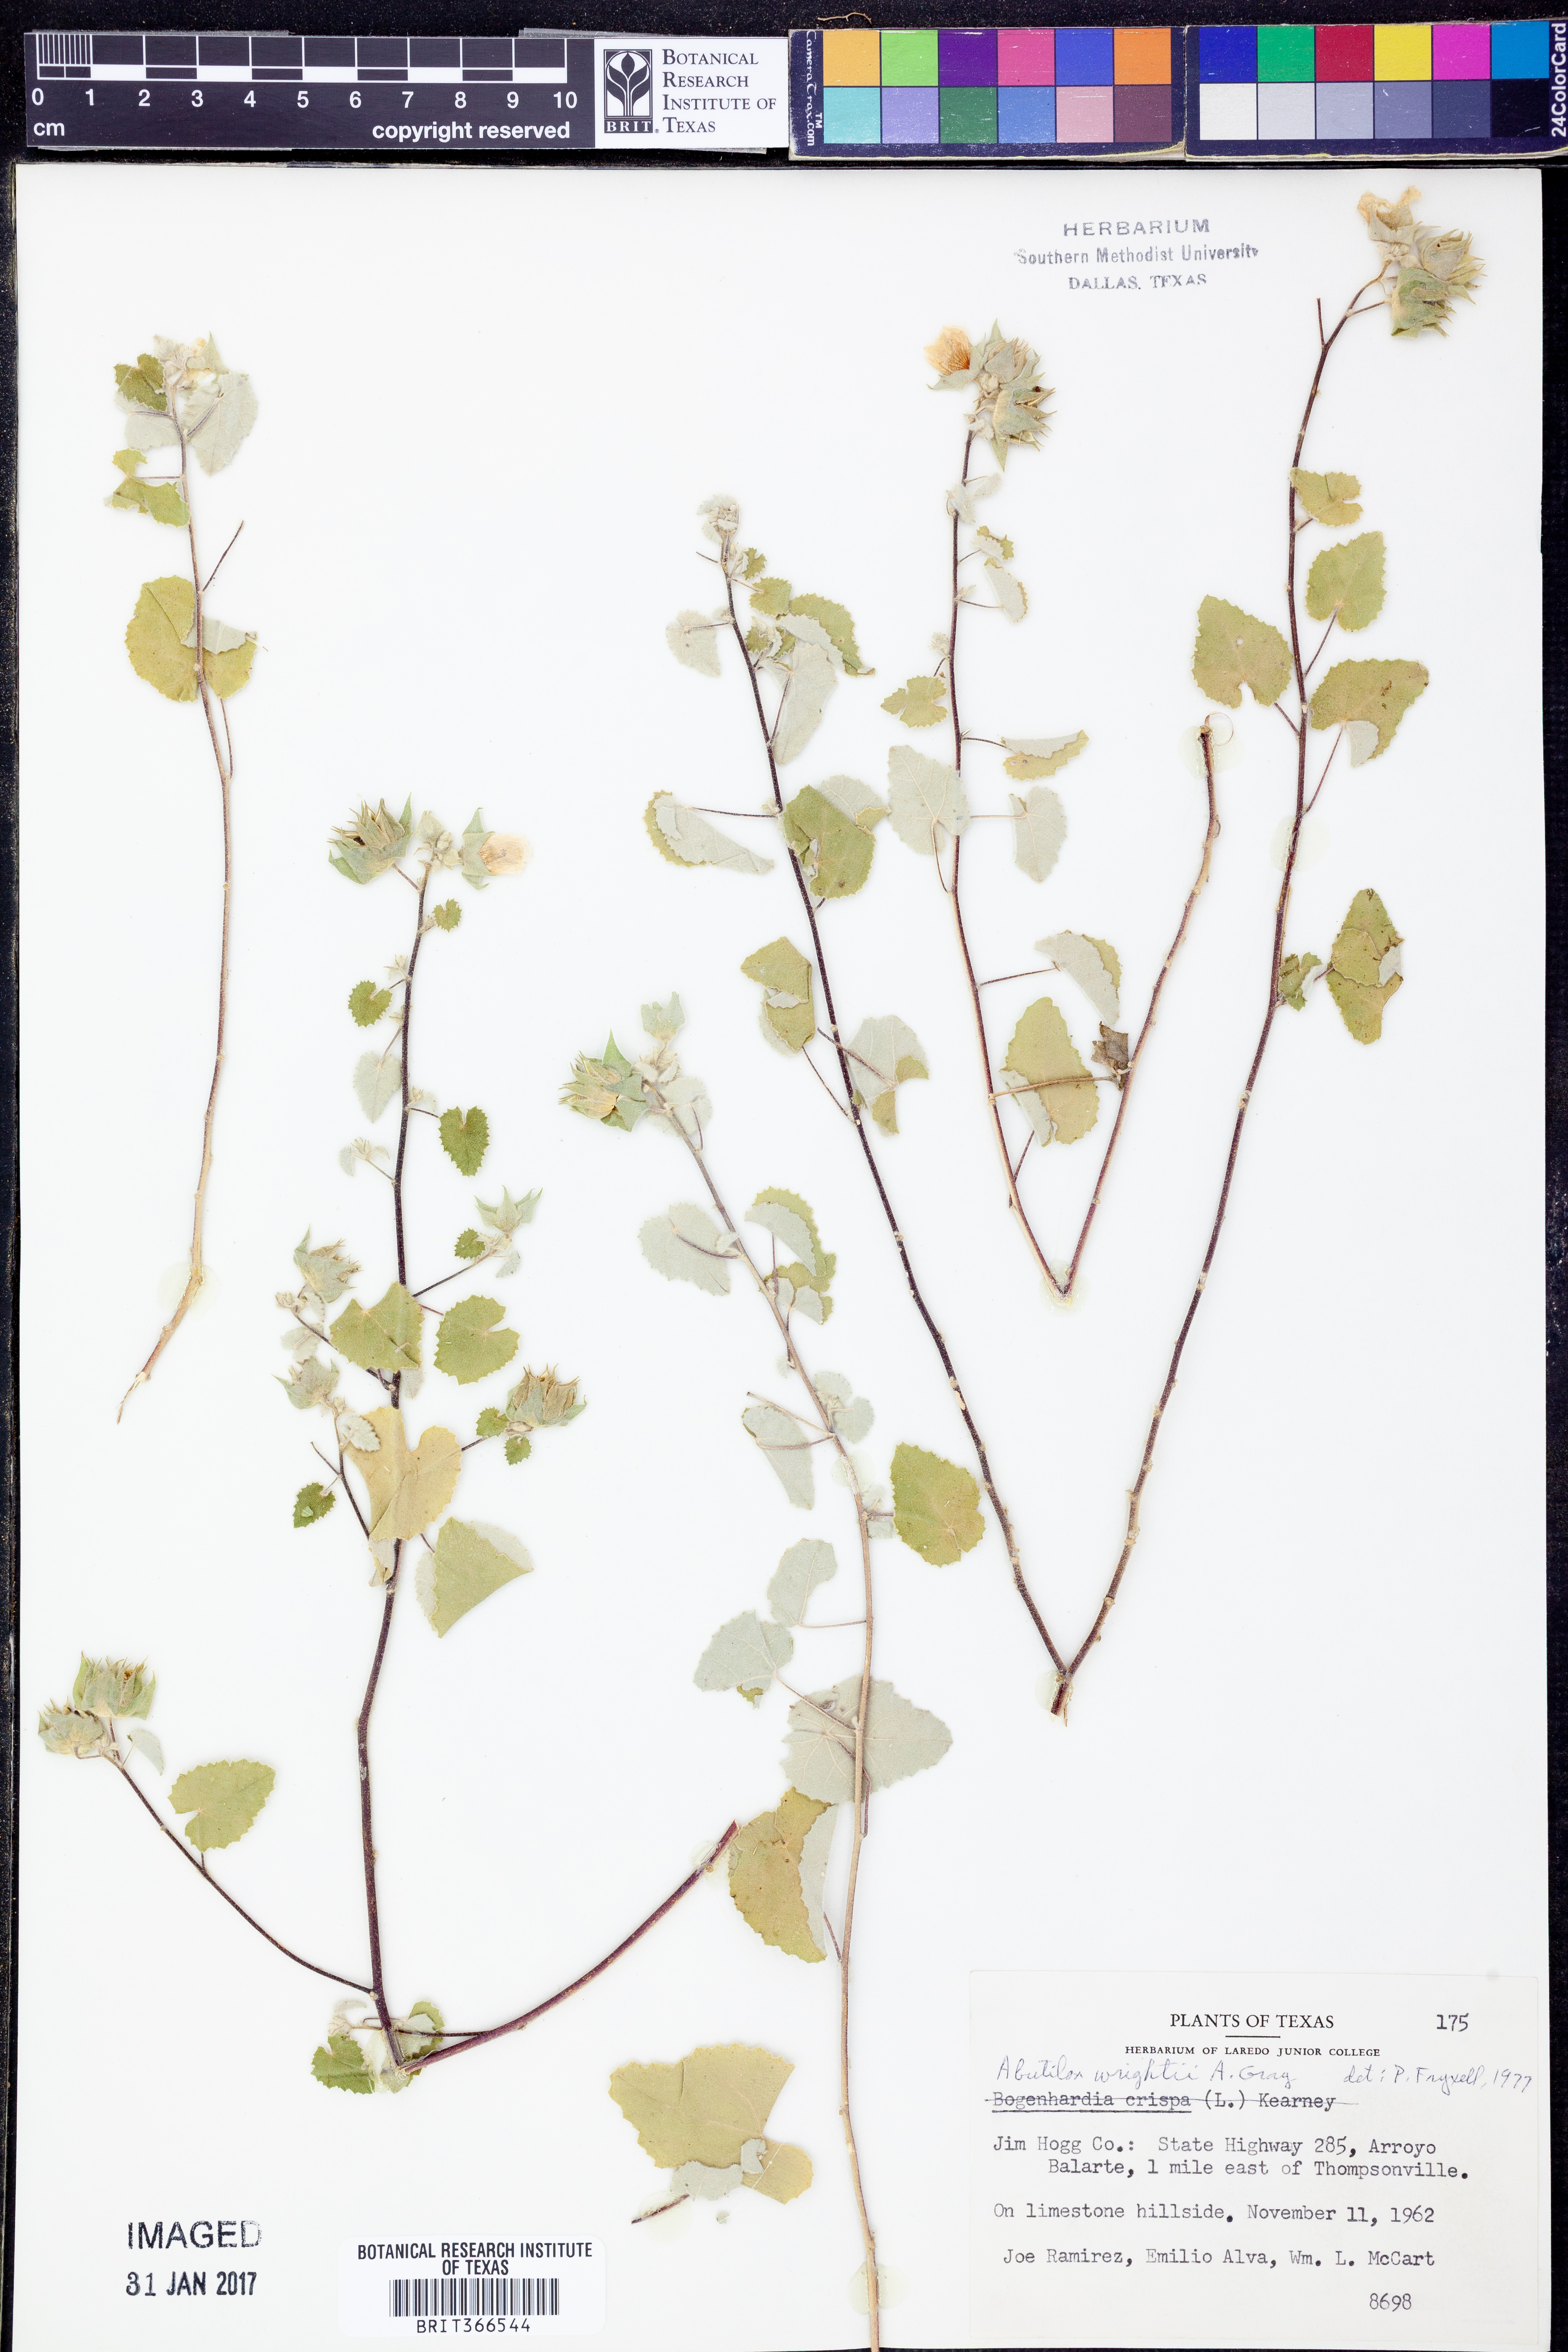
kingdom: Plantae
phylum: Tracheophyta
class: Magnoliopsida
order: Malvales
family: Malvaceae
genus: Abutilon
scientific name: Abutilon wrightii
